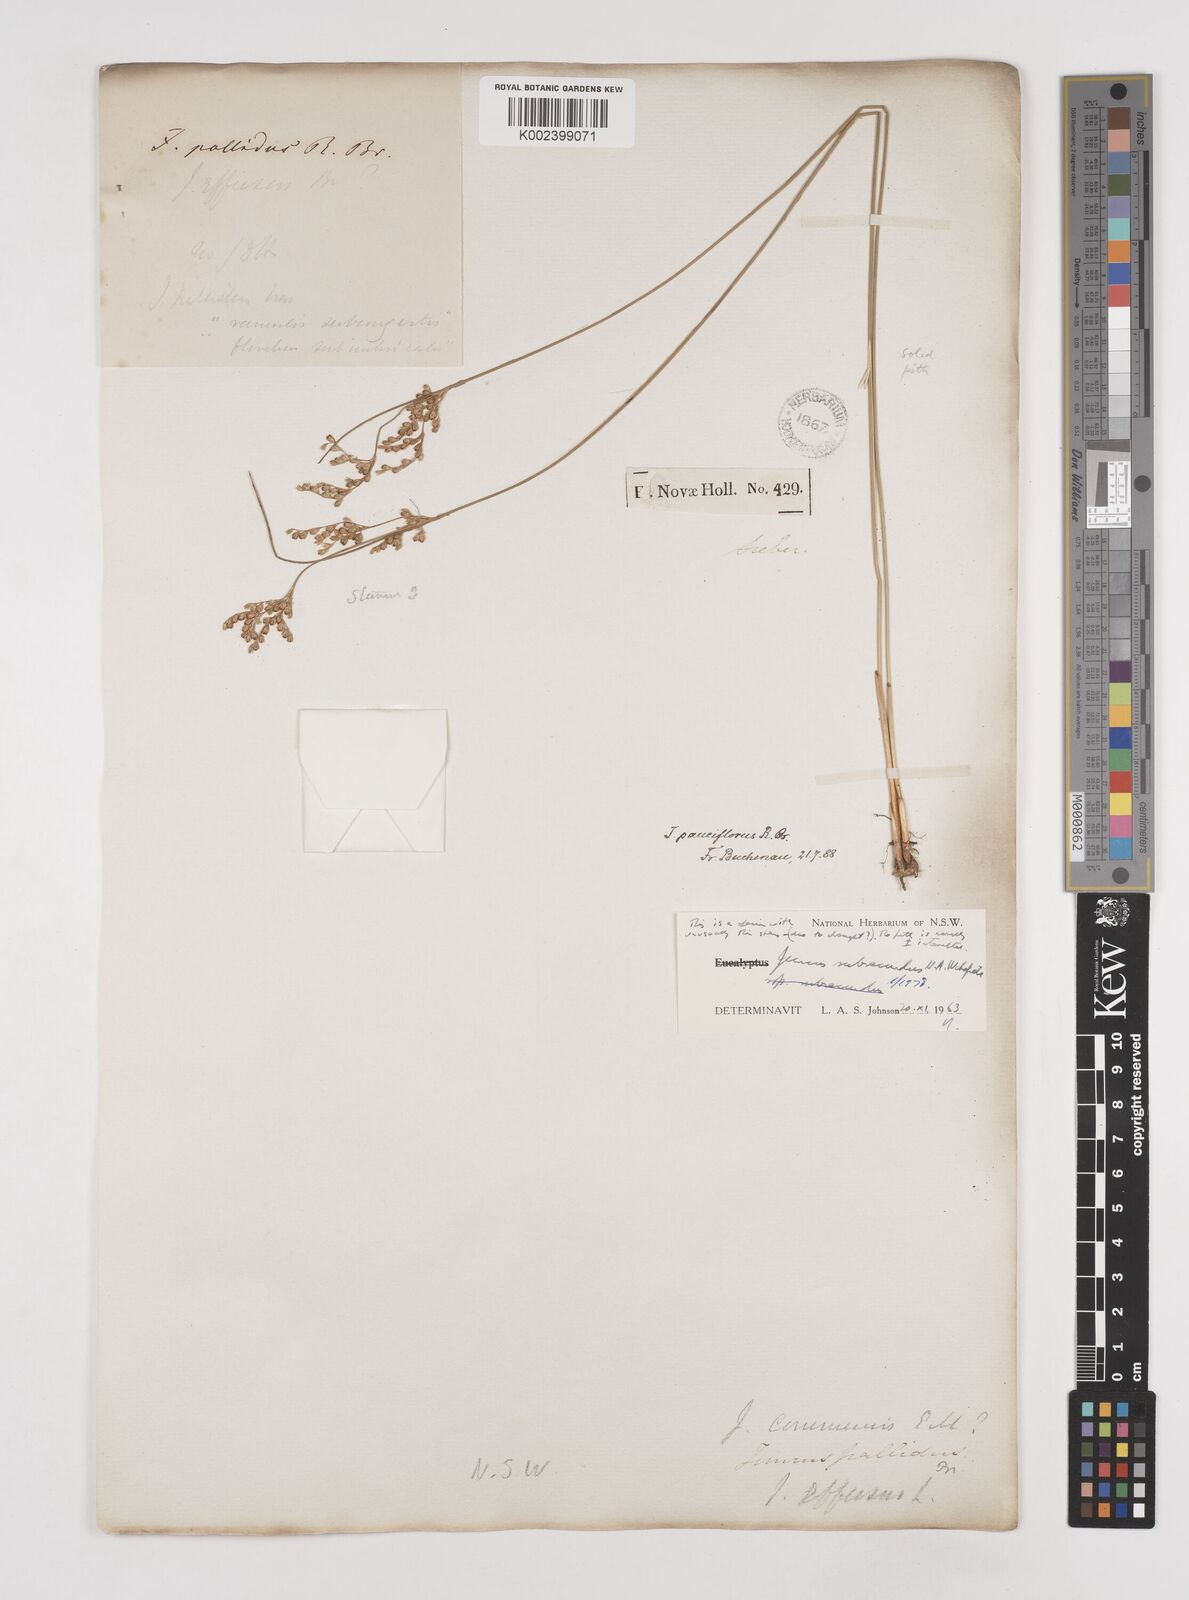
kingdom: Plantae
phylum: Tracheophyta
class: Liliopsida
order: Poales
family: Juncaceae
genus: Juncus
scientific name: Juncus subsecundus
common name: Fingered rush
